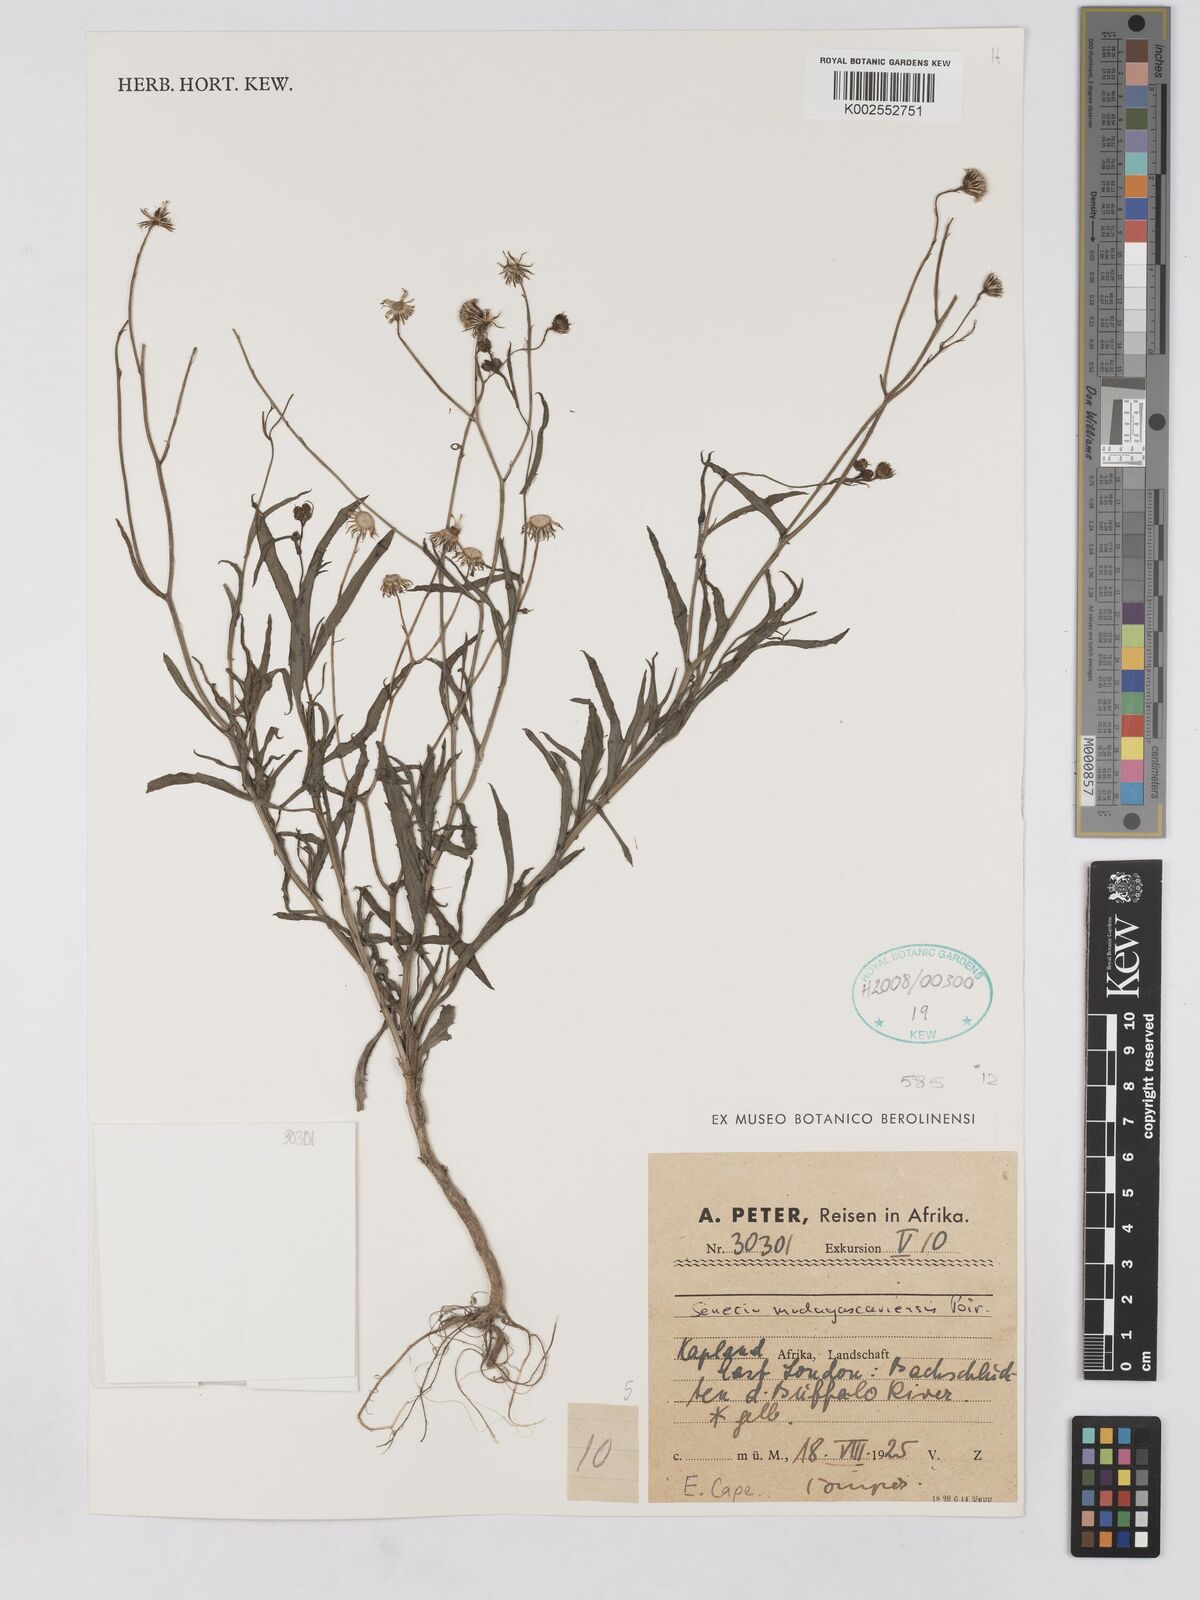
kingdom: Plantae
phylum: Tracheophyta
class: Magnoliopsida
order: Asterales
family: Asteraceae
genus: Senecio
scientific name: Senecio madagascariensis
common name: Madagascar ragwort
